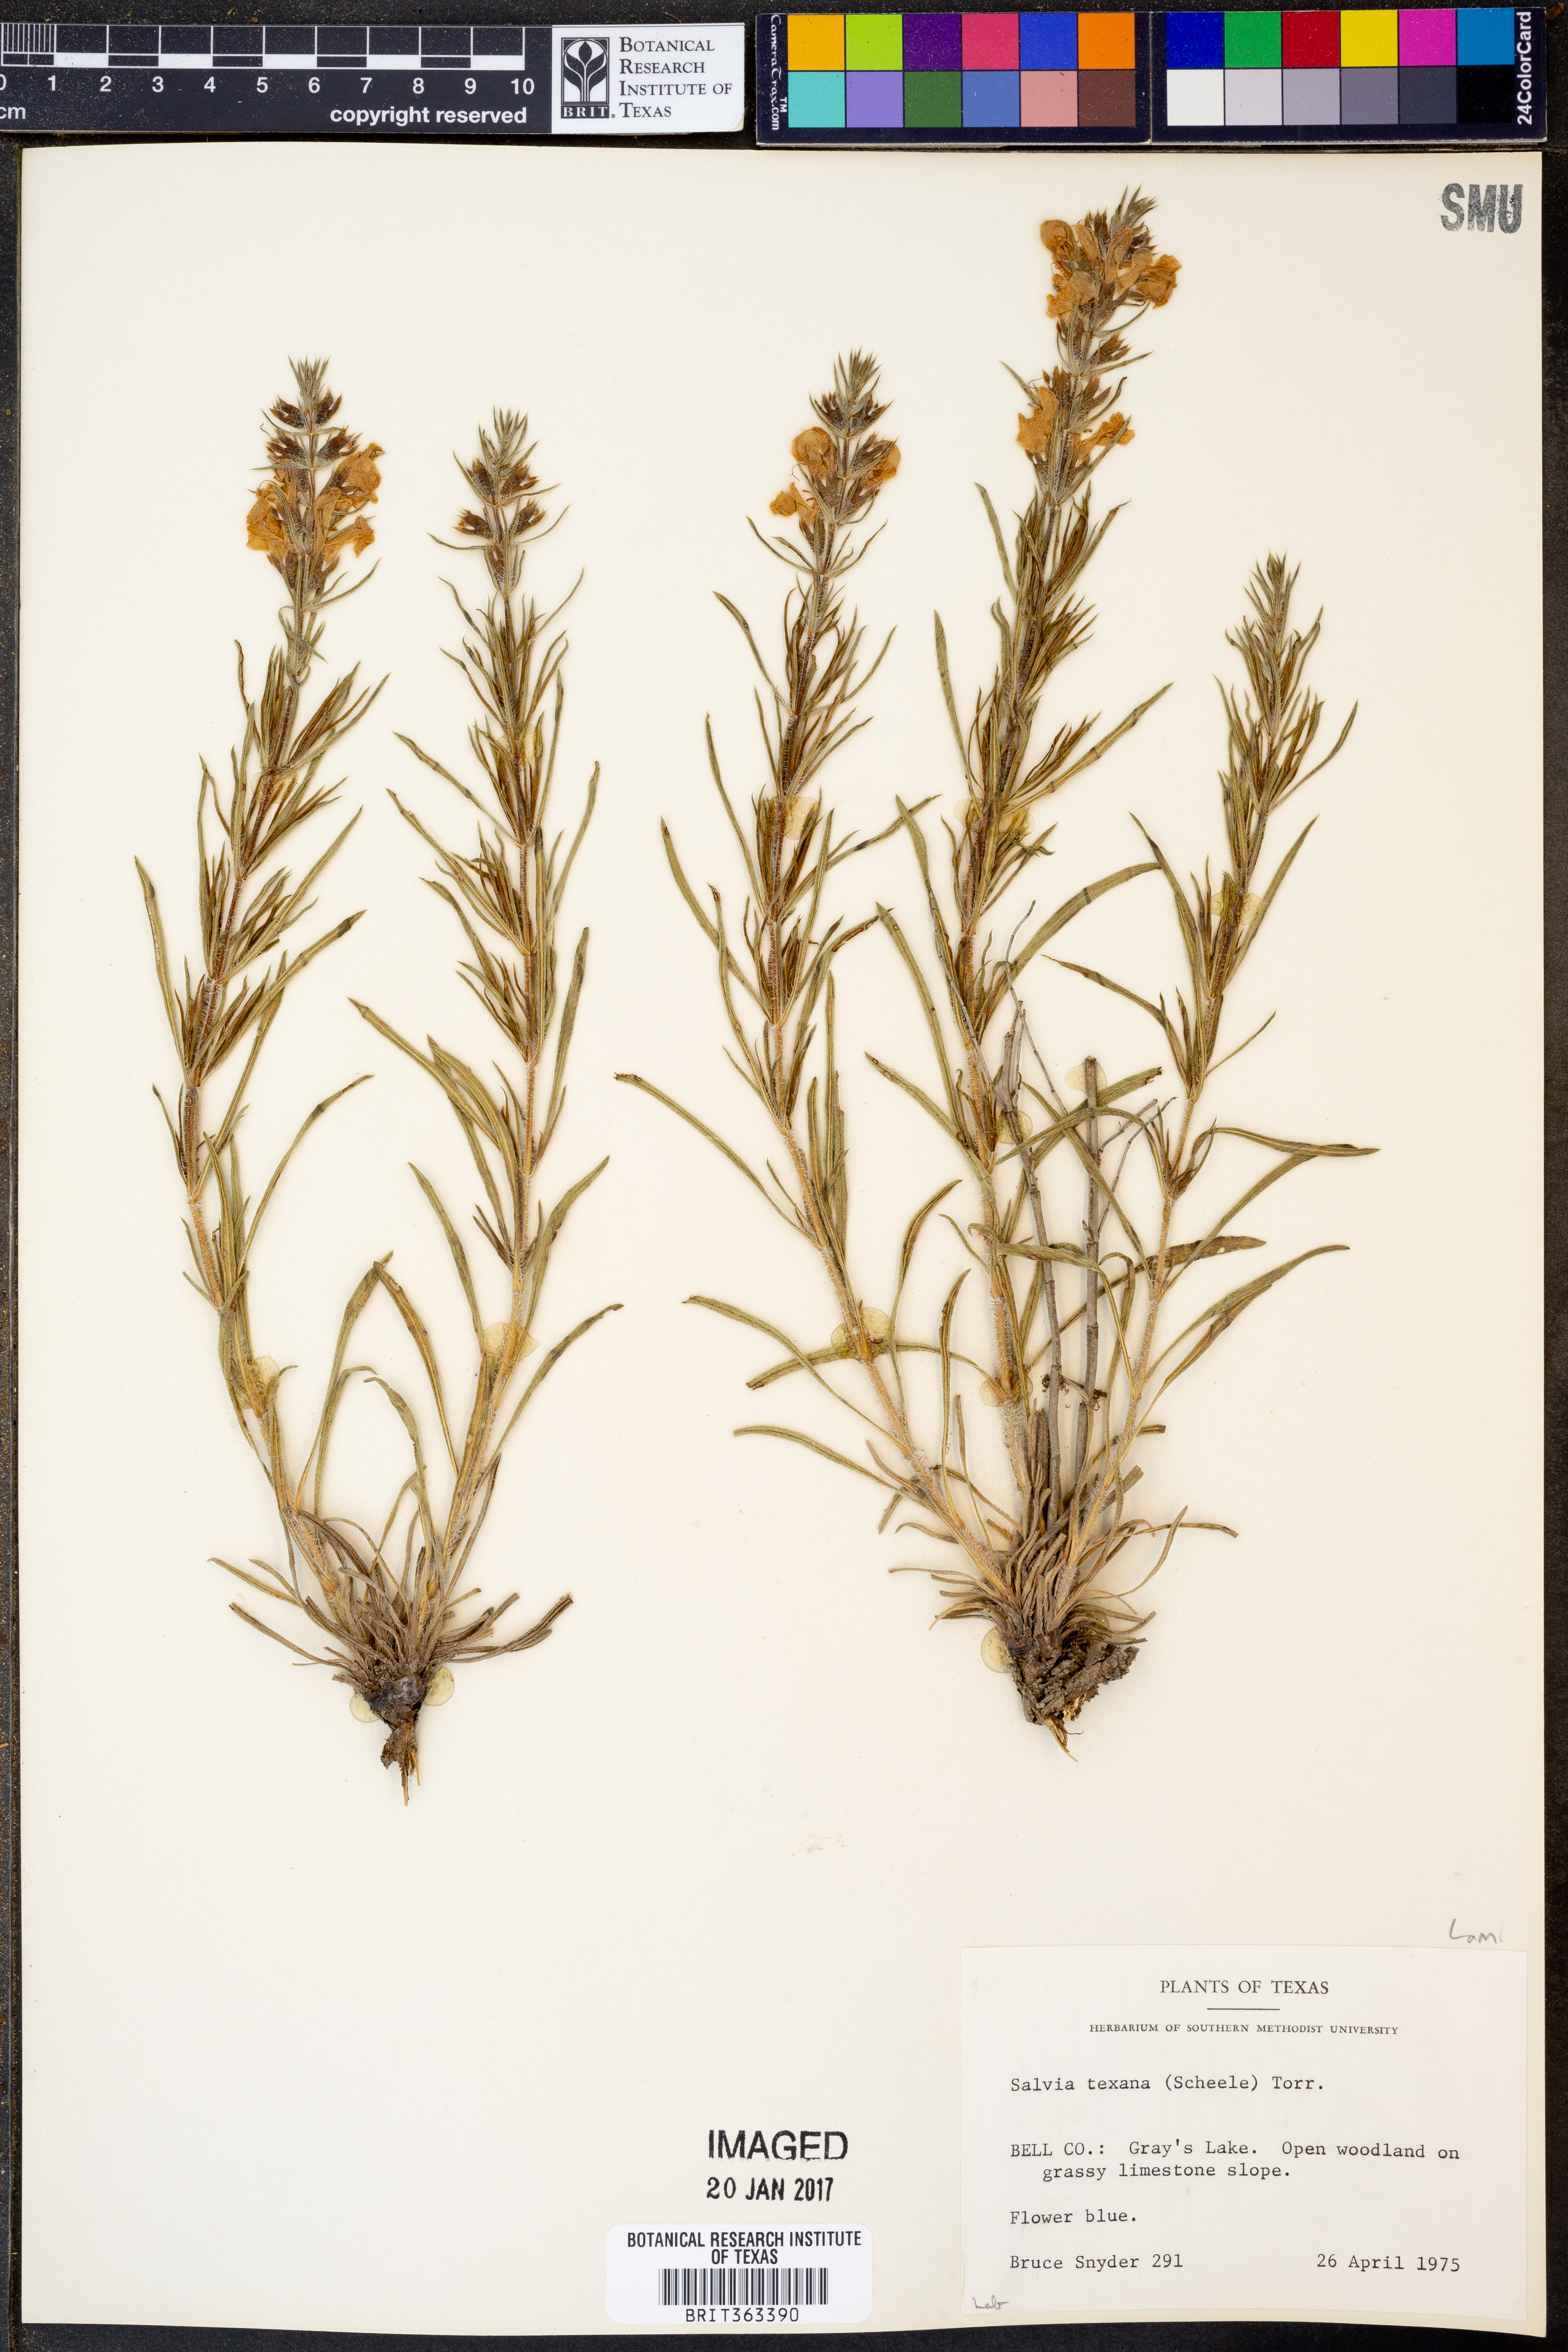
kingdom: Plantae
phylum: Tracheophyta
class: Magnoliopsida
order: Lamiales
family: Lamiaceae
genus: Salvia
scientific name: Salvia texana
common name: Texas sage
